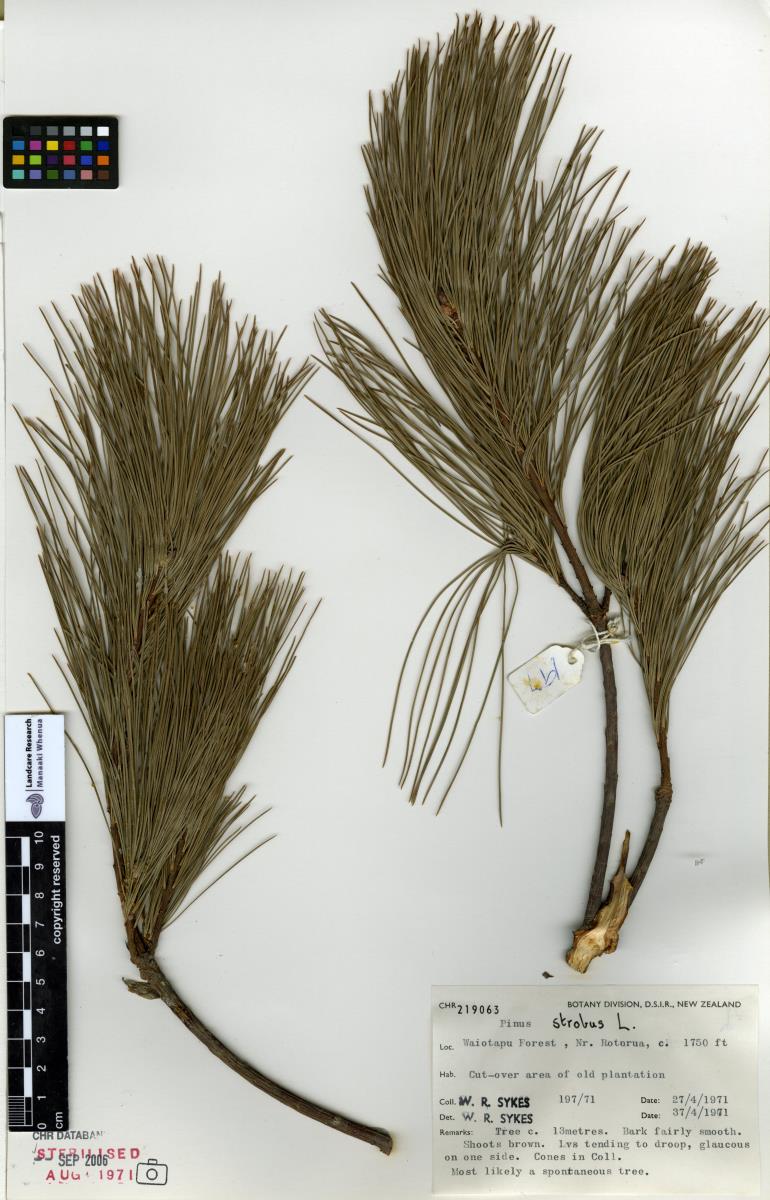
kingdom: Plantae
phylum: Tracheophyta
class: Pinopsida
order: Pinales
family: Pinaceae
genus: Pinus
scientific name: Pinus strobus
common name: Weymouth pine
